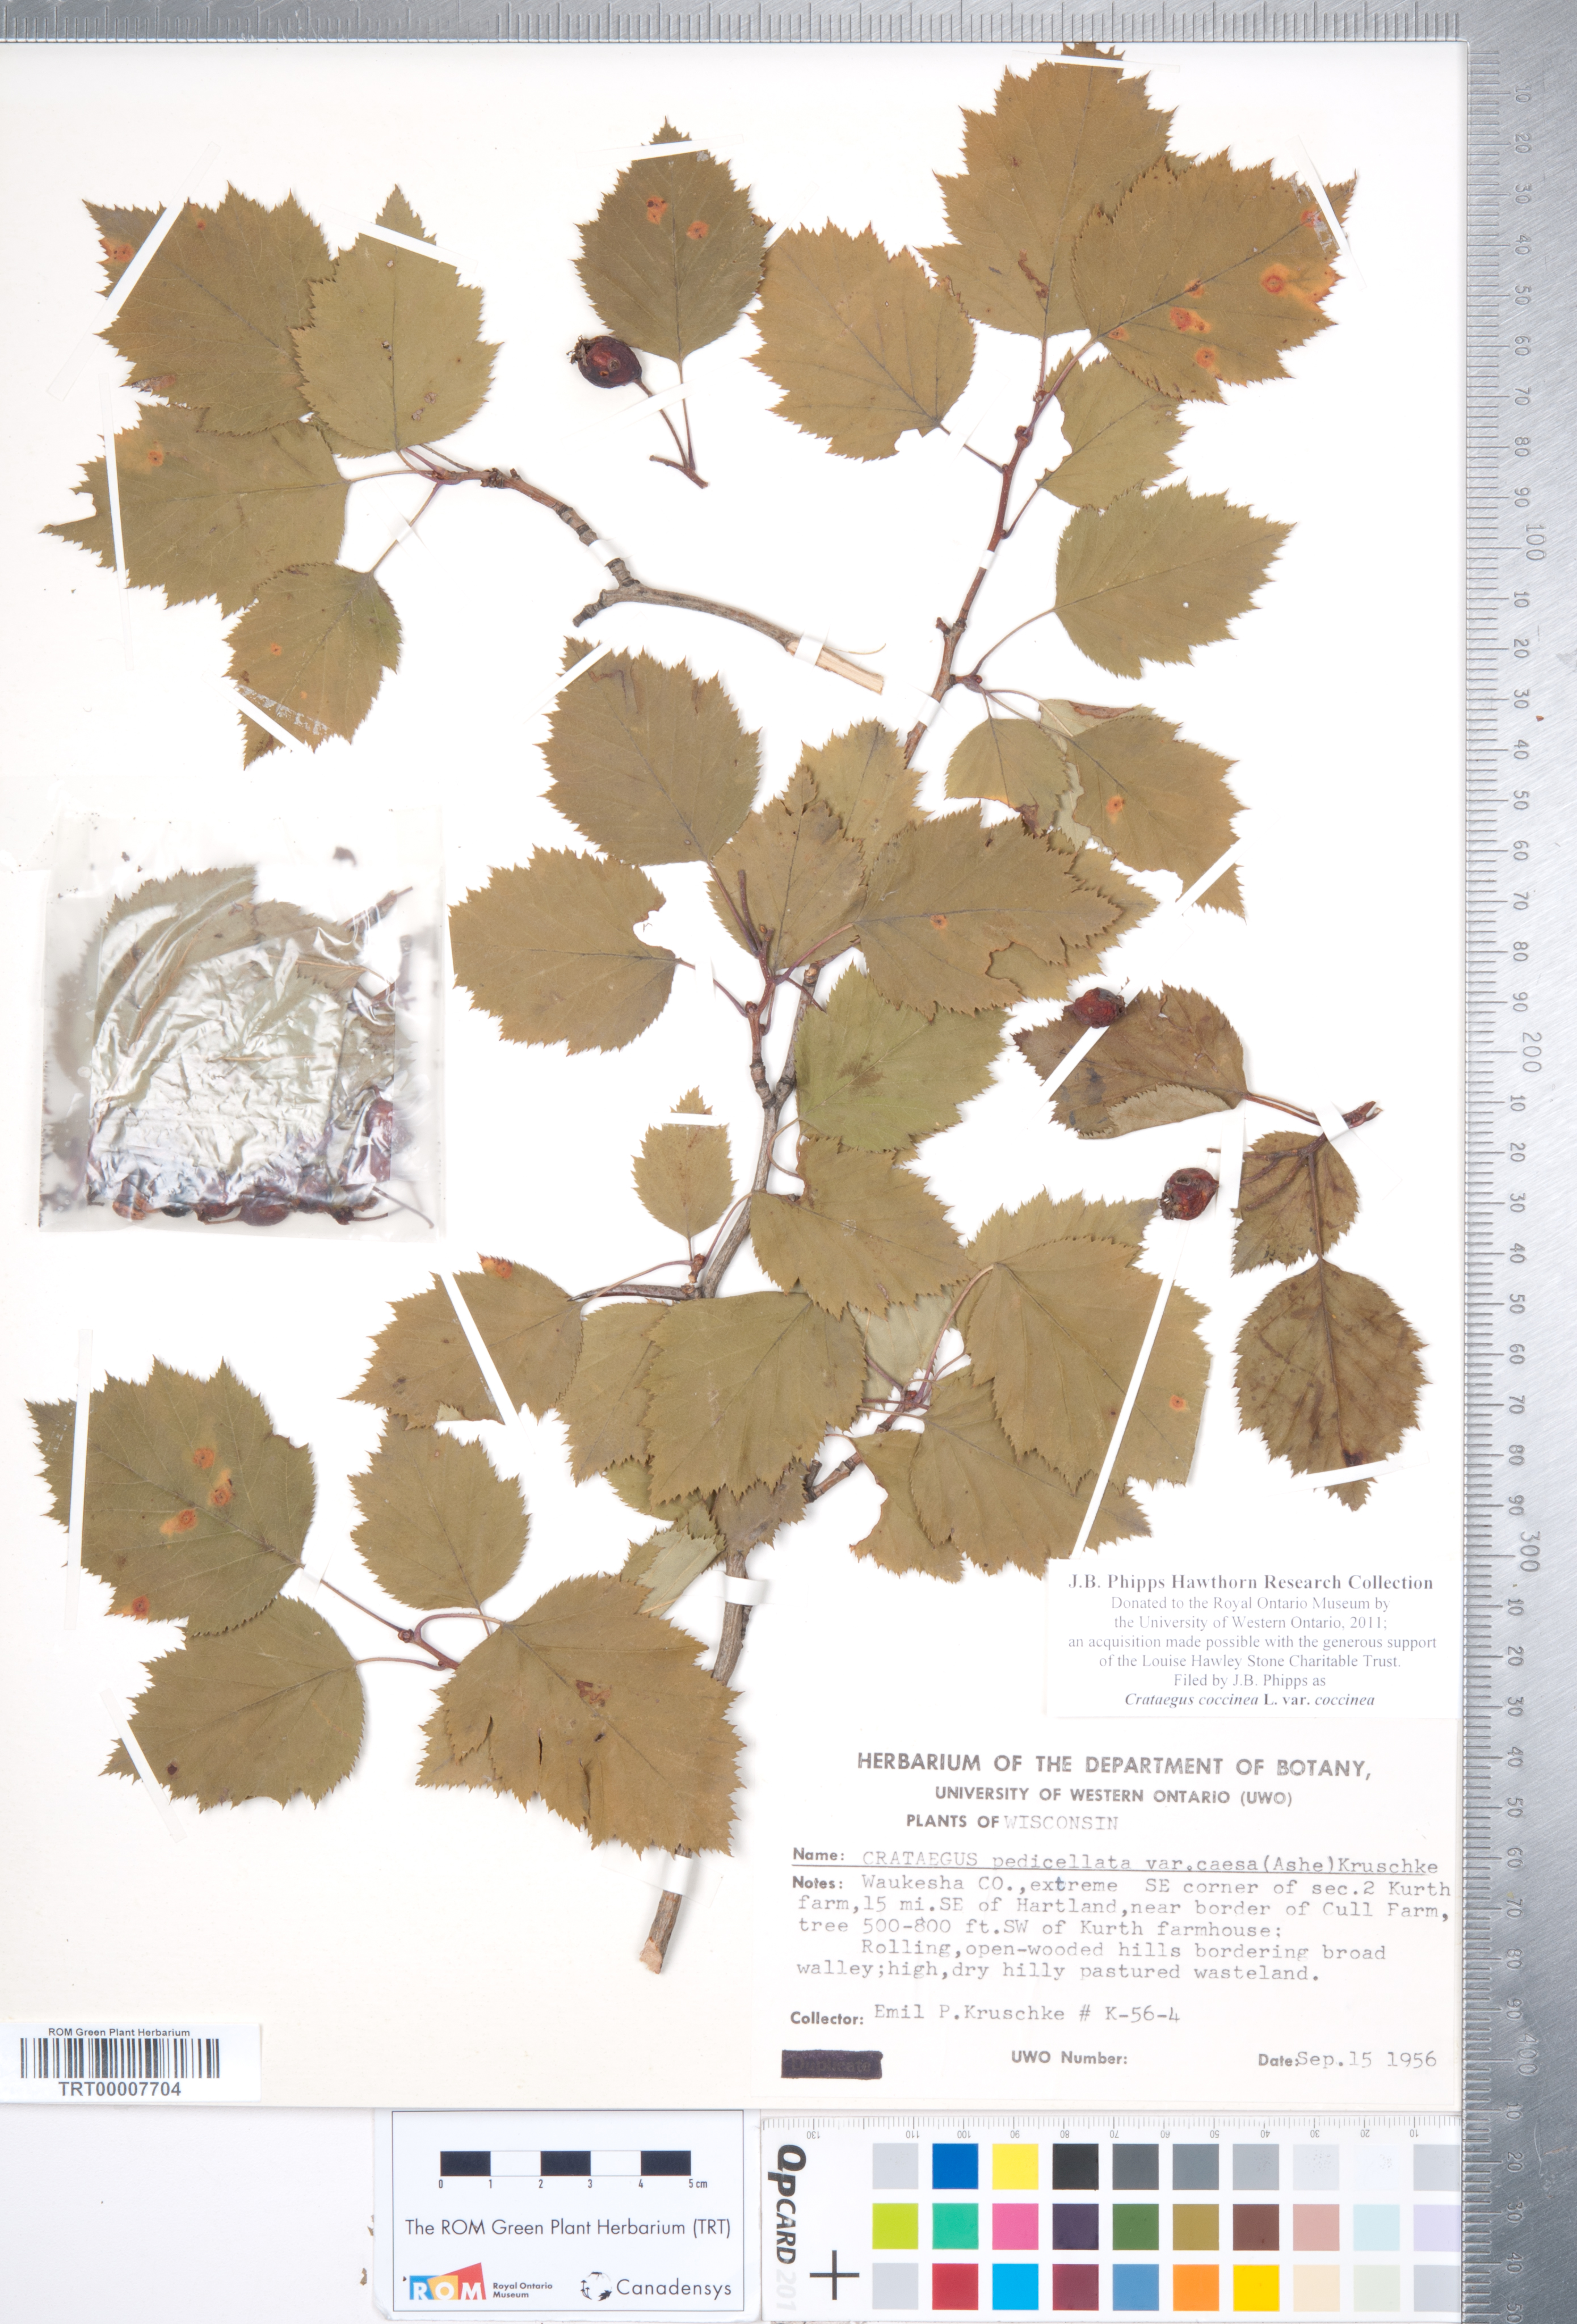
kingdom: Plantae
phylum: Tracheophyta
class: Magnoliopsida
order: Rosales
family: Rosaceae
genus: Crataegus
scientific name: Crataegus coccinea
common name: Scarlet hawthorn
